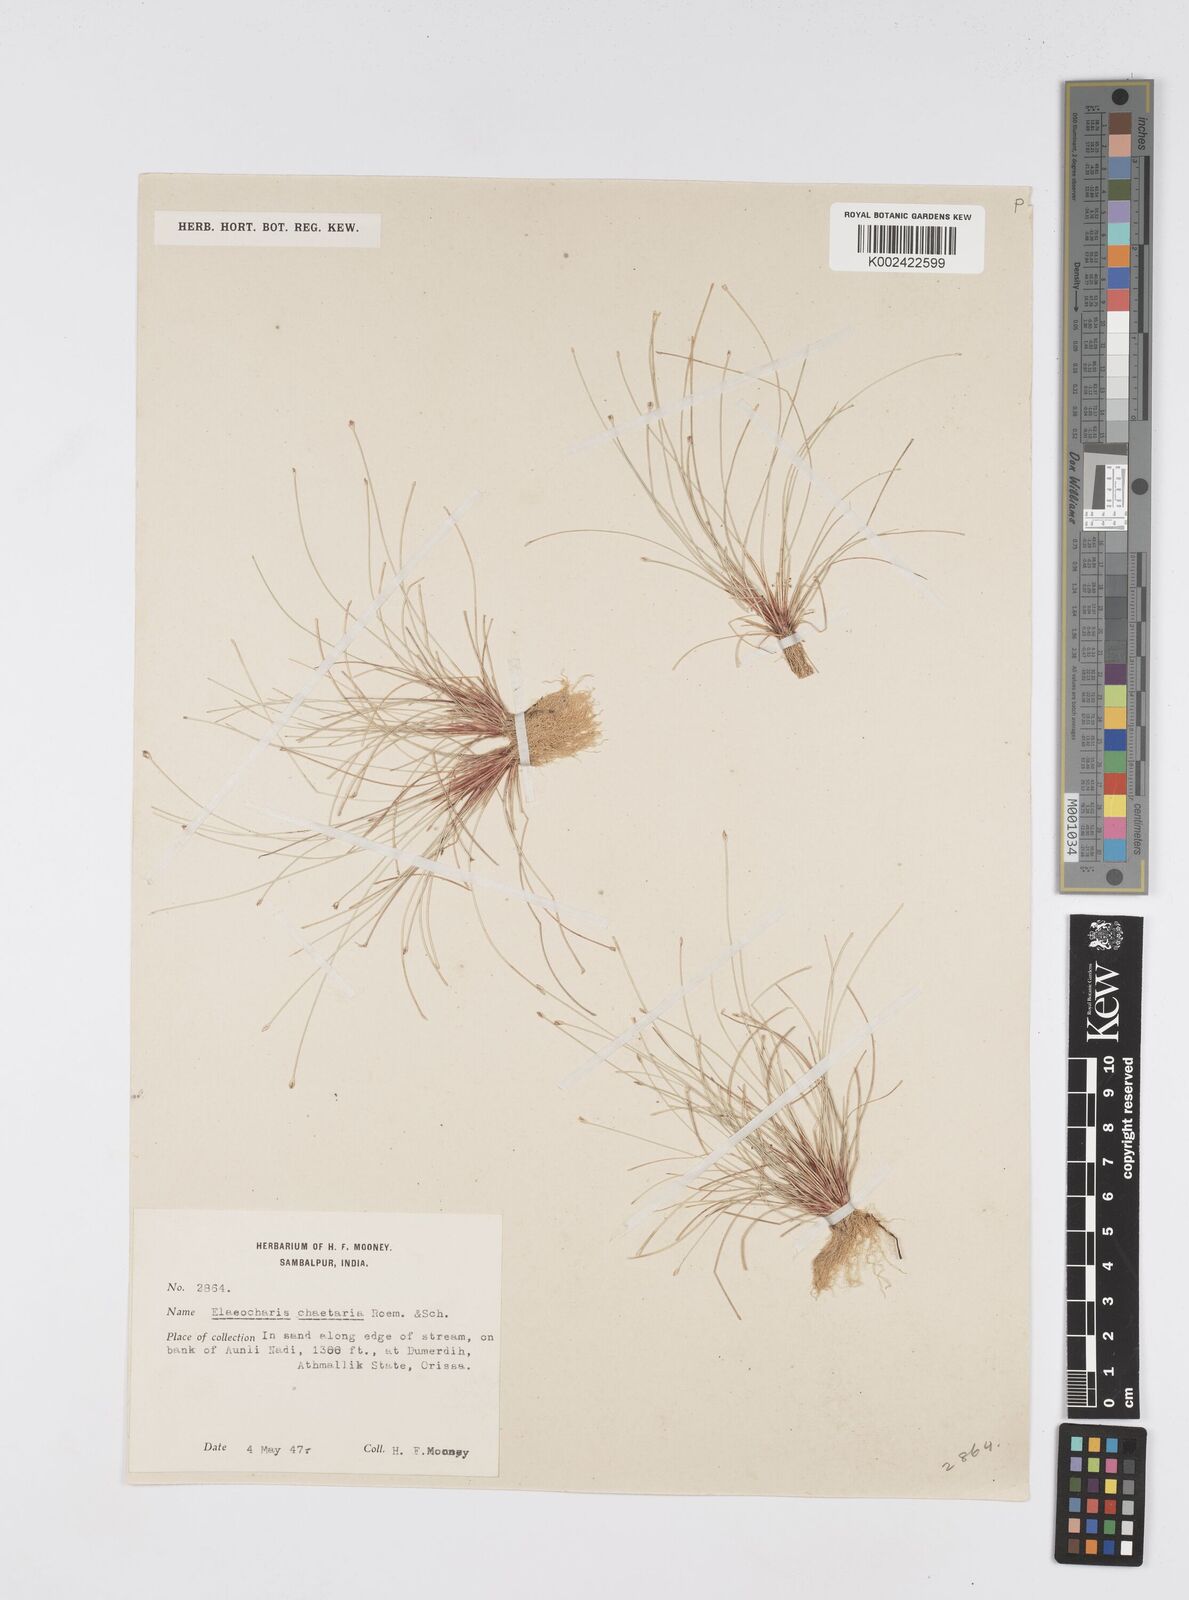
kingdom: Plantae
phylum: Tracheophyta
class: Liliopsida
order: Poales
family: Cyperaceae
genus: Eleocharis
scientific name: Eleocharis retroflexa
